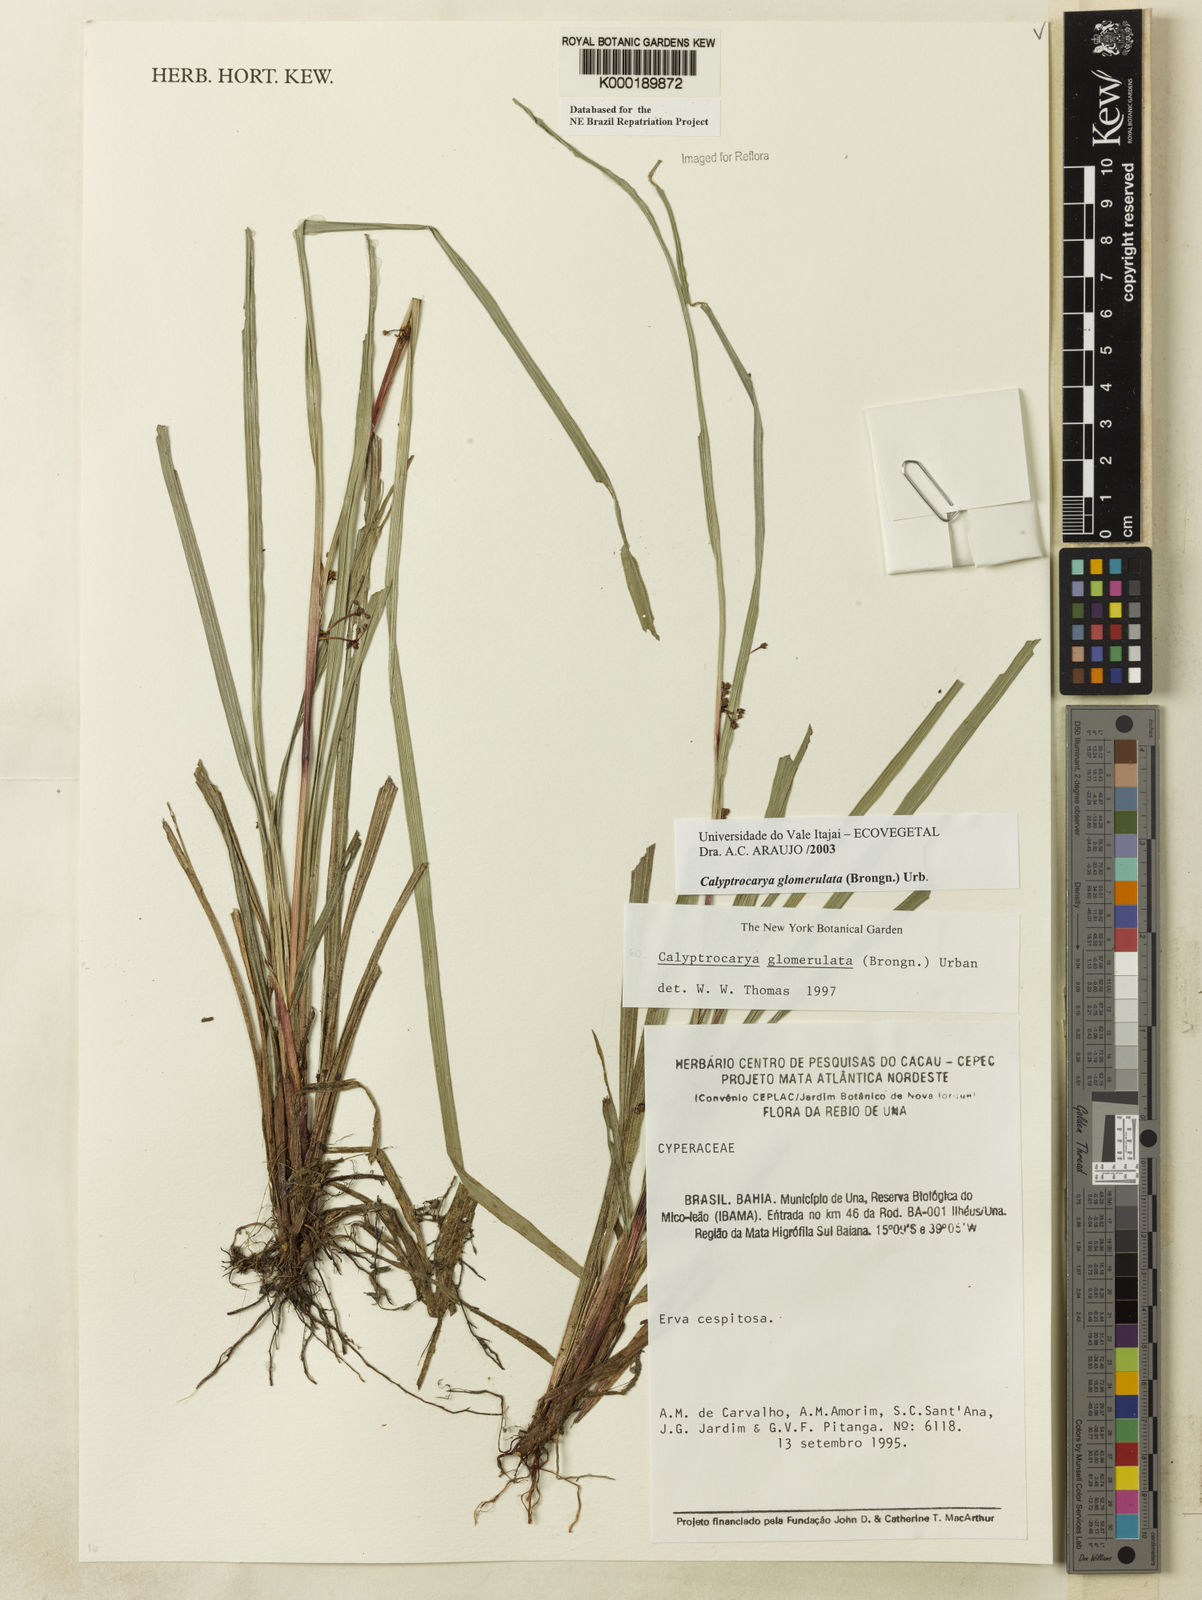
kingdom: Plantae
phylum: Tracheophyta
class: Liliopsida
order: Poales
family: Cyperaceae
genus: Calyptrocarya
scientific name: Calyptrocarya glomerulata
